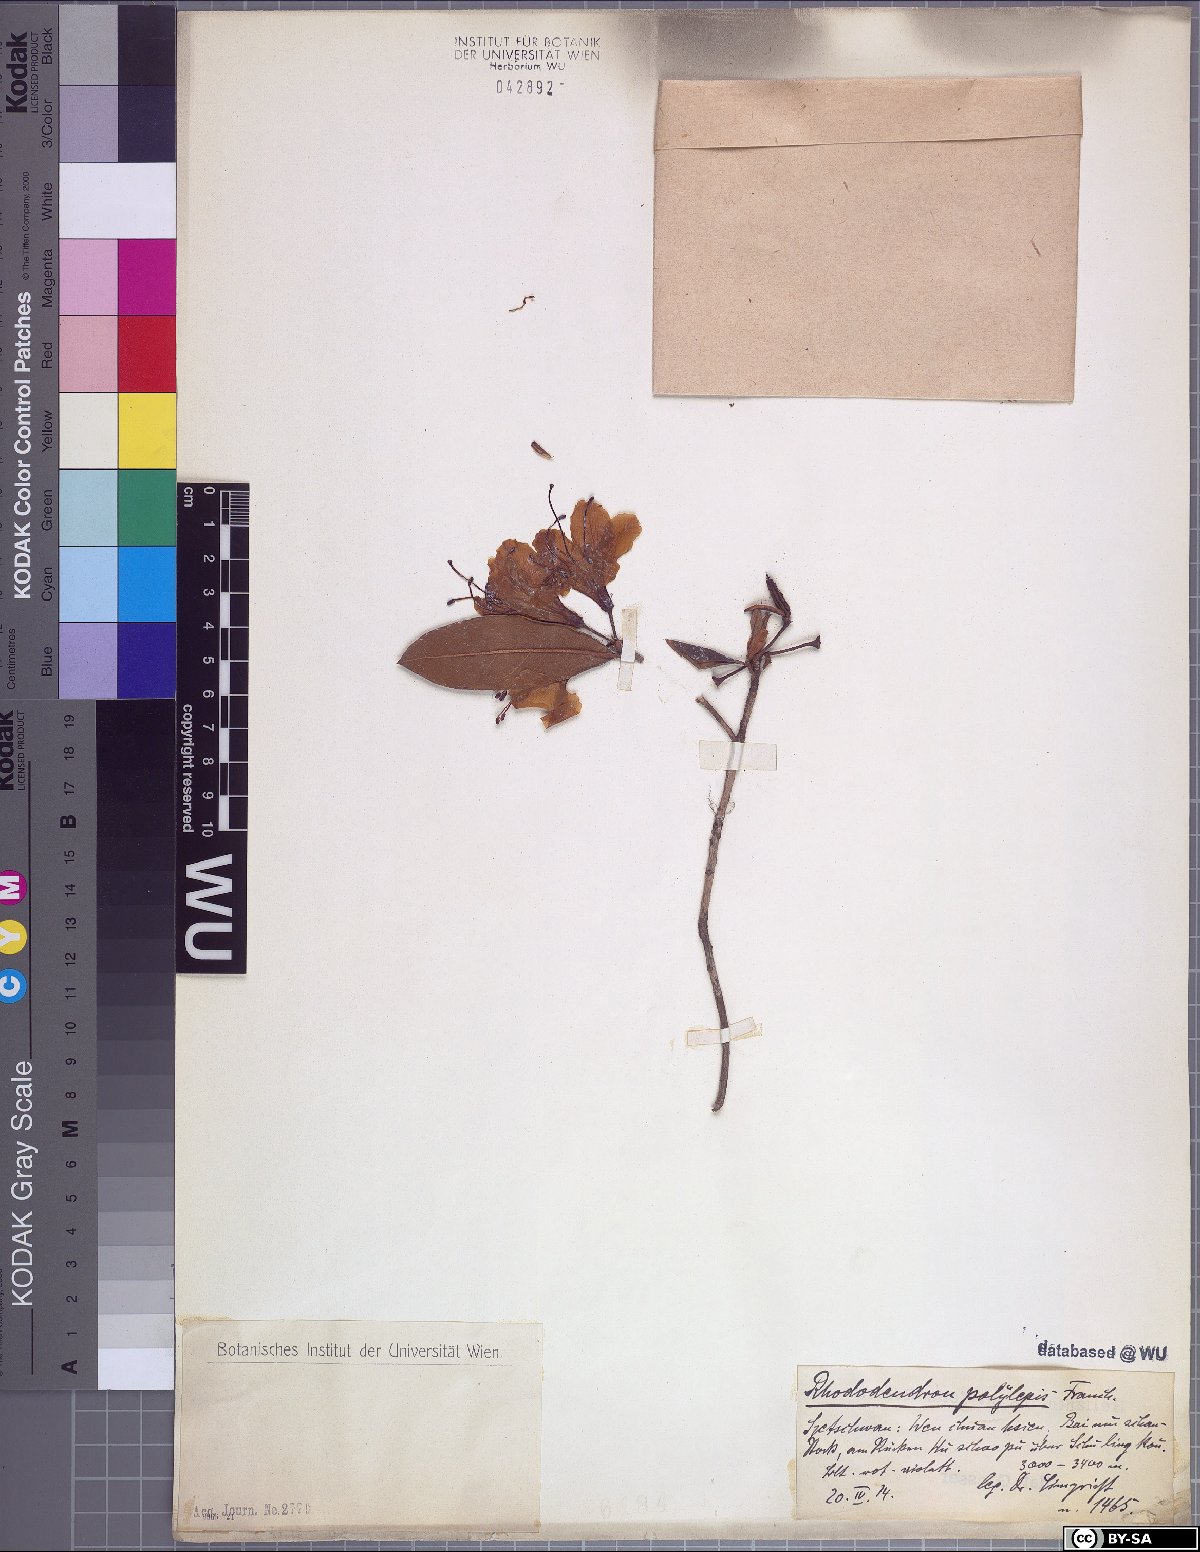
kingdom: Plantae
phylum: Tracheophyta
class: Magnoliopsida
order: Ericales
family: Ericaceae
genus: Rhododendron
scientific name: Rhododendron polylepis
